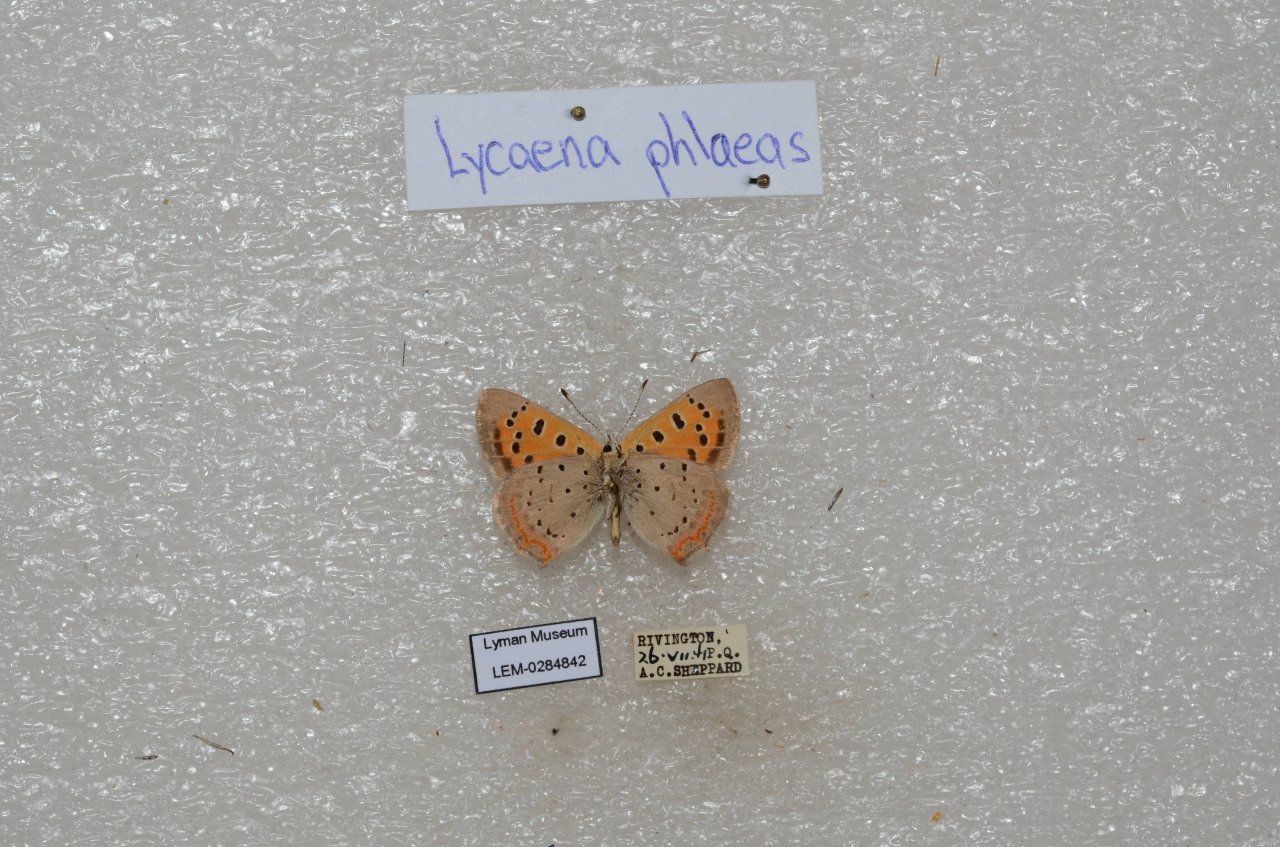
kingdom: Animalia
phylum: Arthropoda
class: Insecta
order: Lepidoptera
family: Lycaenidae
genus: Lycaena
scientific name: Lycaena phlaeas
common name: American Copper
